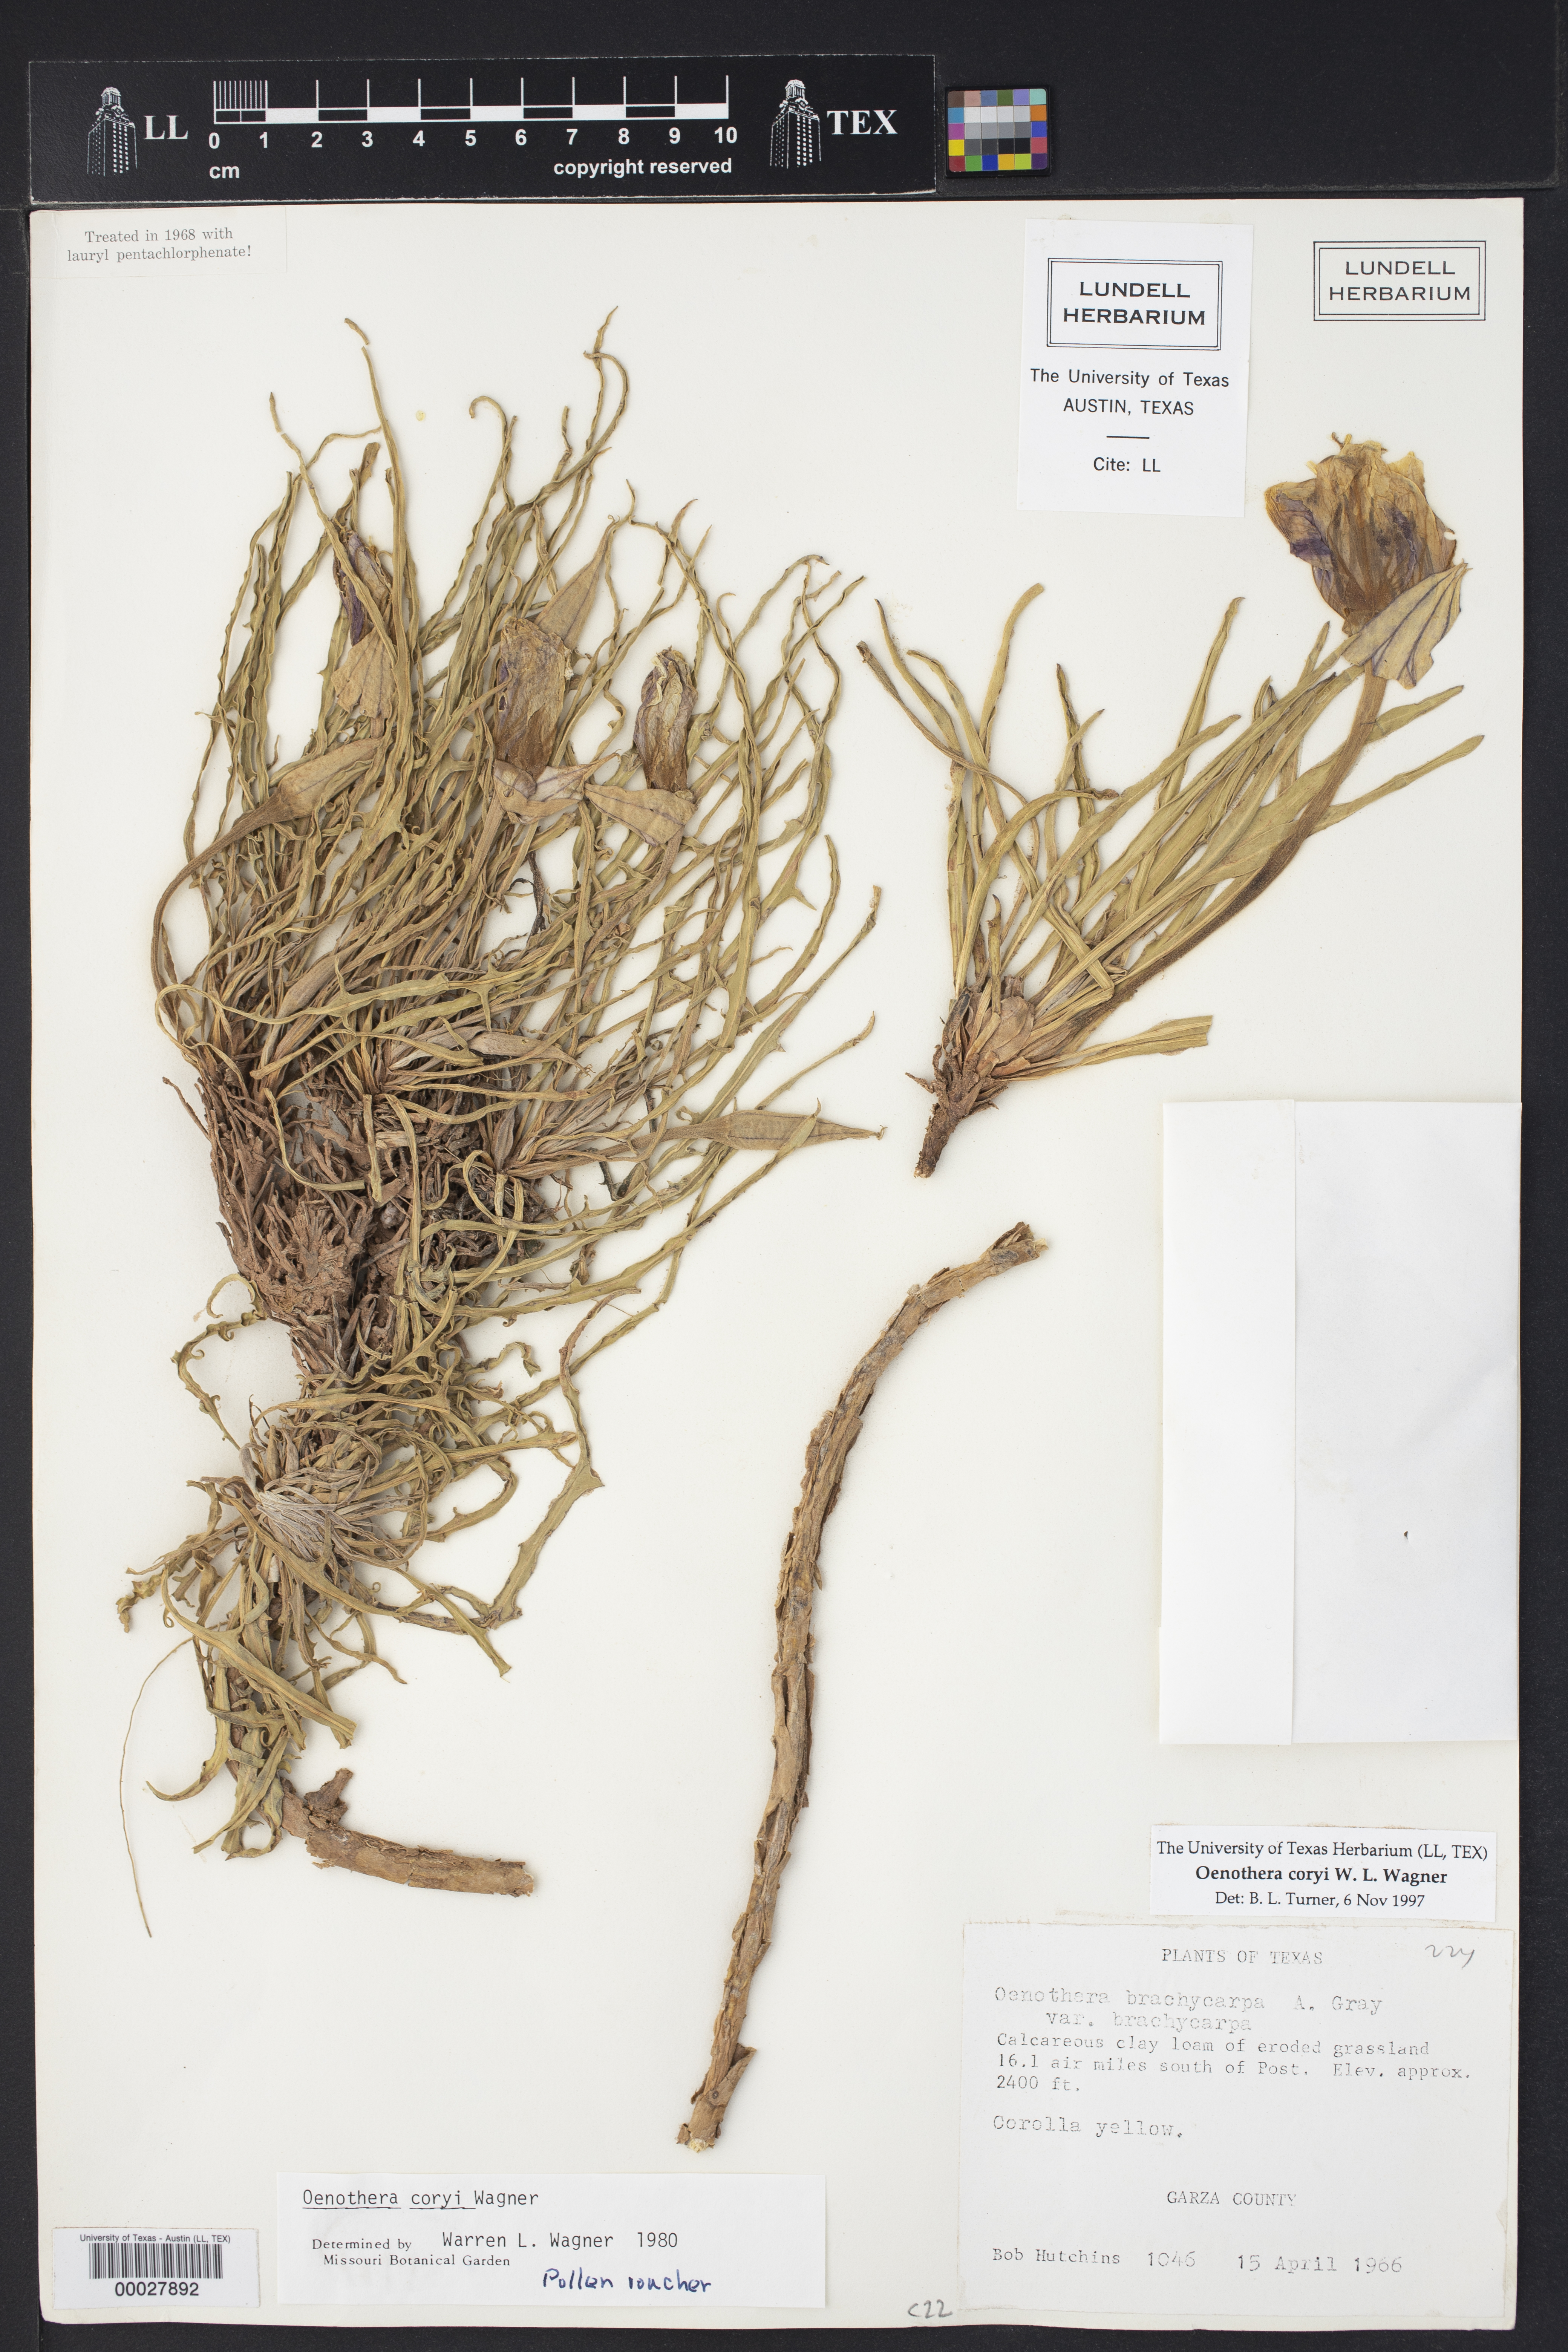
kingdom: Plantae
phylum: Tracheophyta
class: Magnoliopsida
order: Myrtales
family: Onagraceae
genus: Oenothera
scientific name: Oenothera coryi
